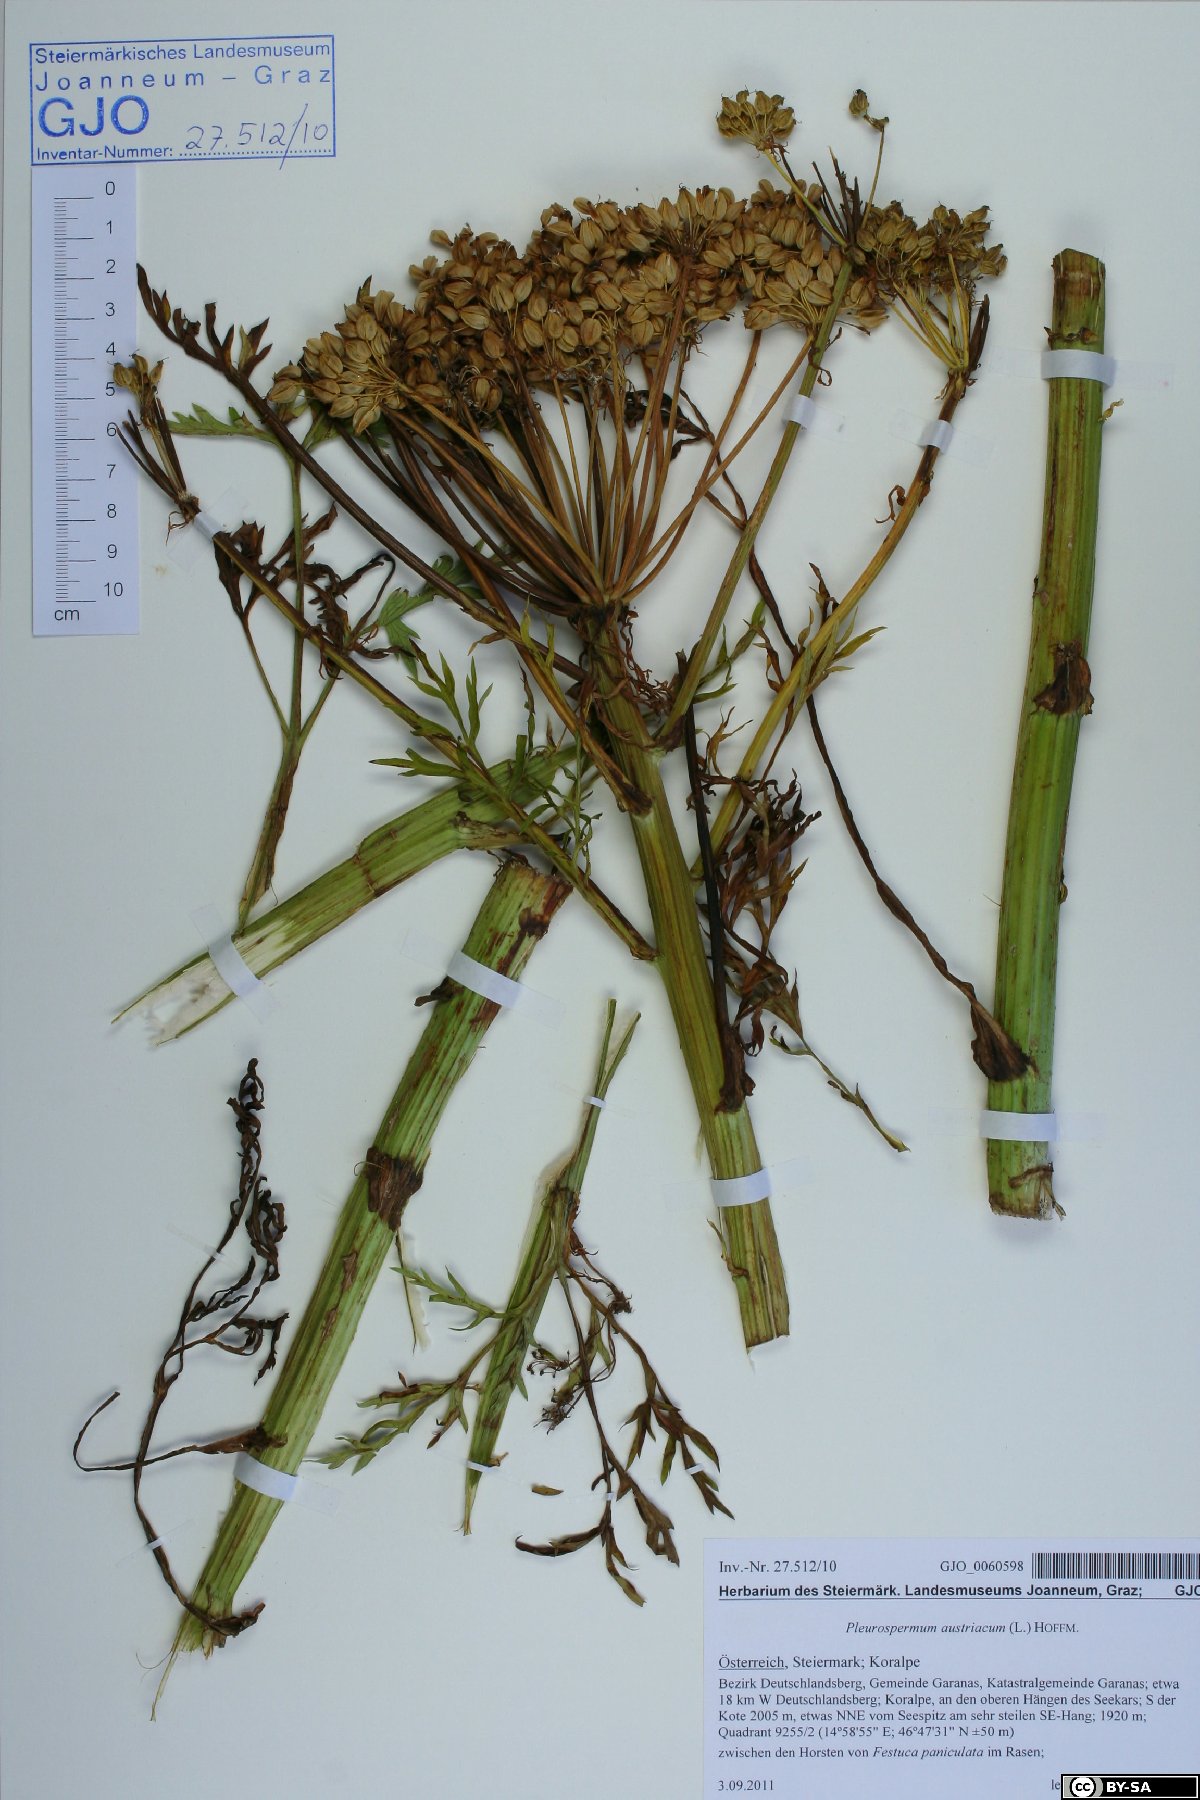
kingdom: Plantae
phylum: Tracheophyta
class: Magnoliopsida
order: Apiales
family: Apiaceae
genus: Pleurospermum
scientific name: Pleurospermum austriacum
